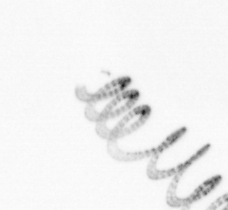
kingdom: Chromista
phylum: Ochrophyta
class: Bacillariophyceae
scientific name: Bacillariophyceae
